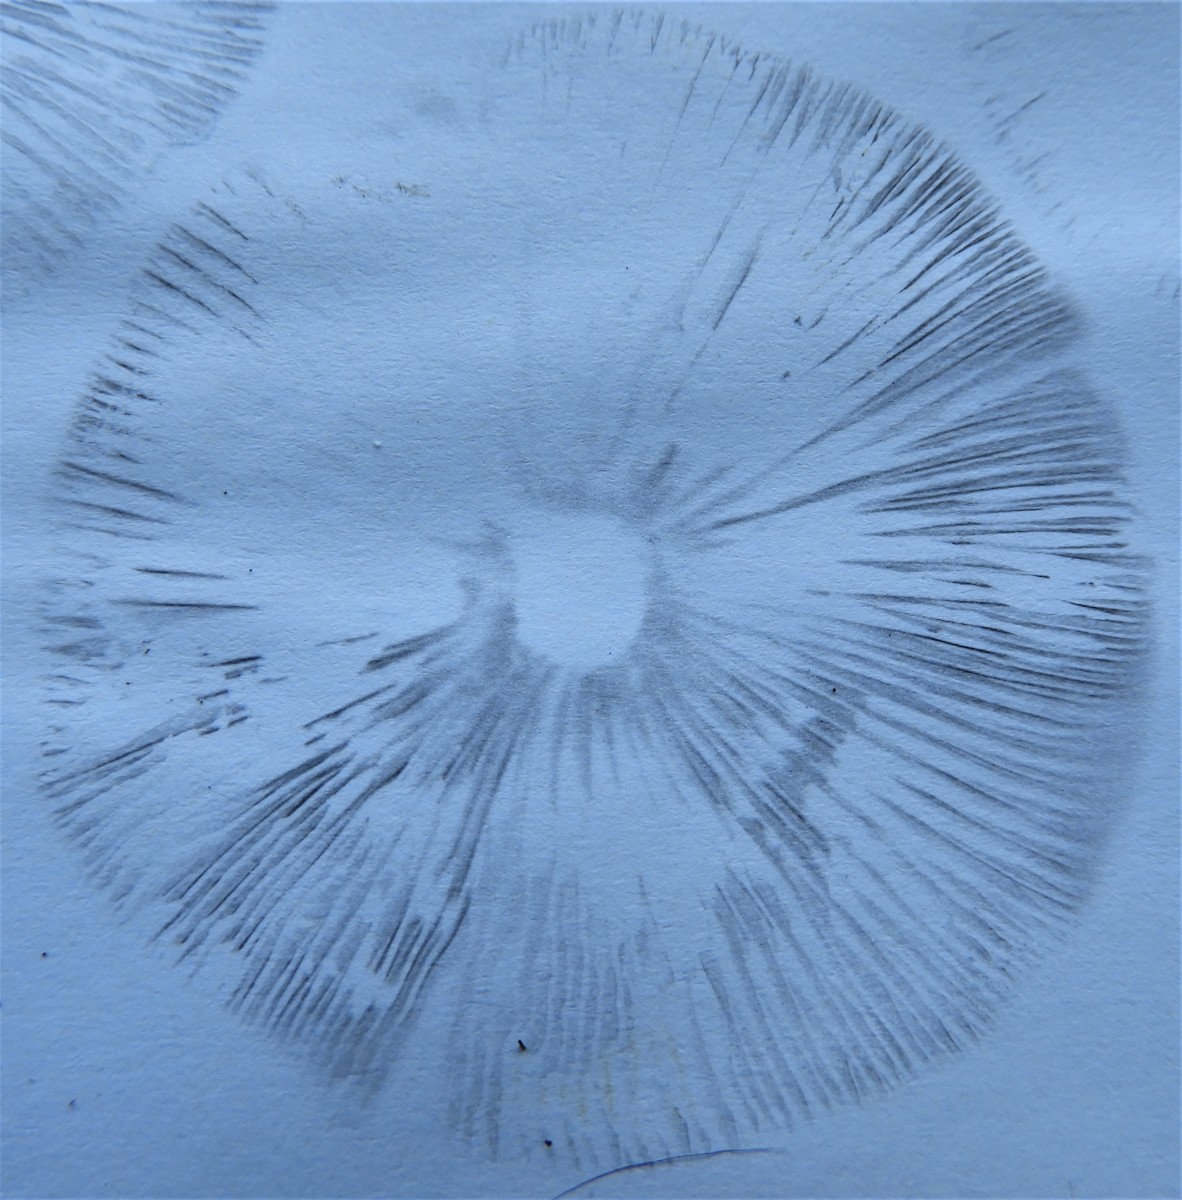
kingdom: Fungi
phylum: Basidiomycota
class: Agaricomycetes
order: Agaricales
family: Psathyrellaceae
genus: Psathyrella
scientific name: Psathyrella
